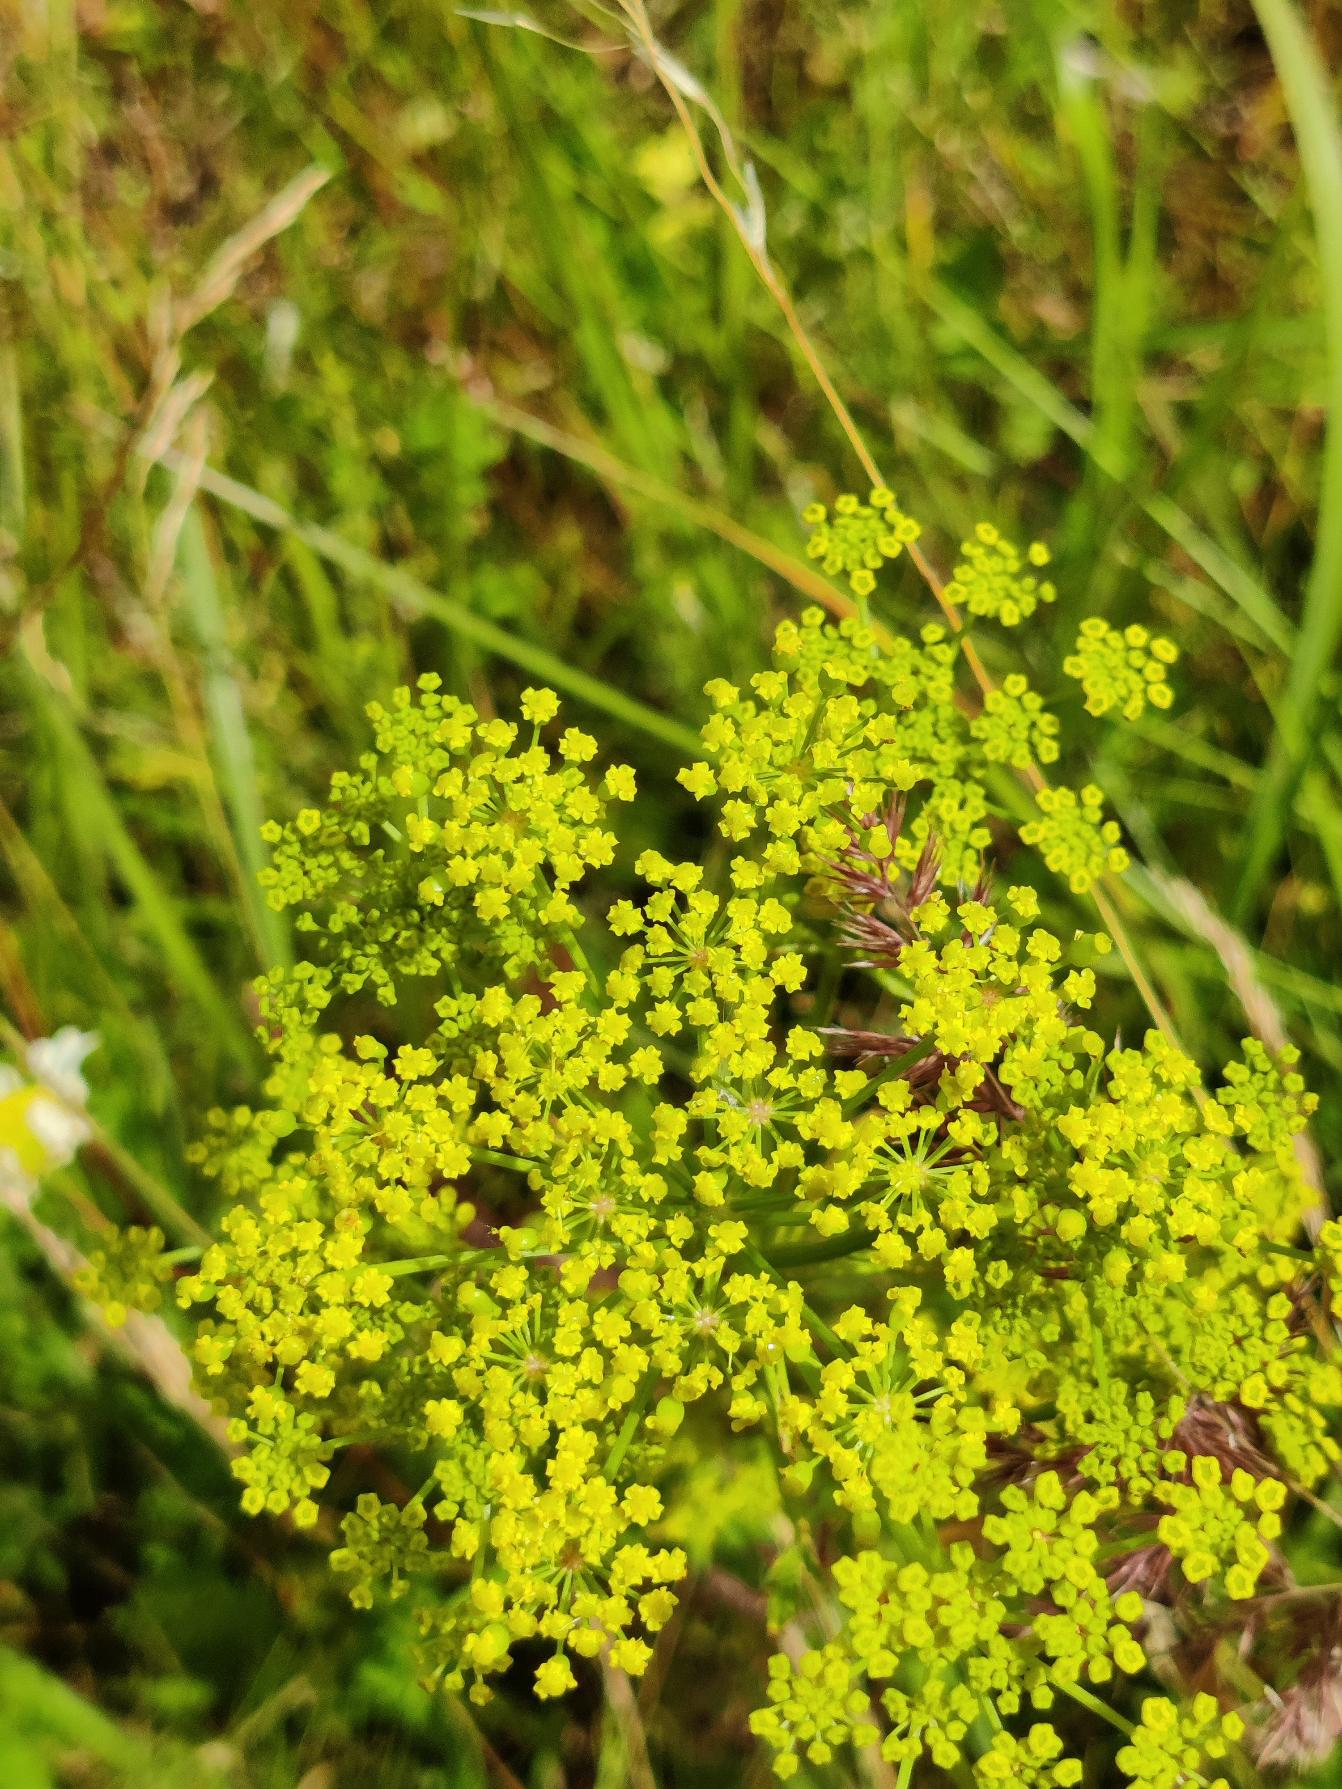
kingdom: Plantae
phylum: Tracheophyta
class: Magnoliopsida
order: Apiales
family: Apiaceae
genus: Pastinaca
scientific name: Pastinaca sativa
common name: Pastinak
